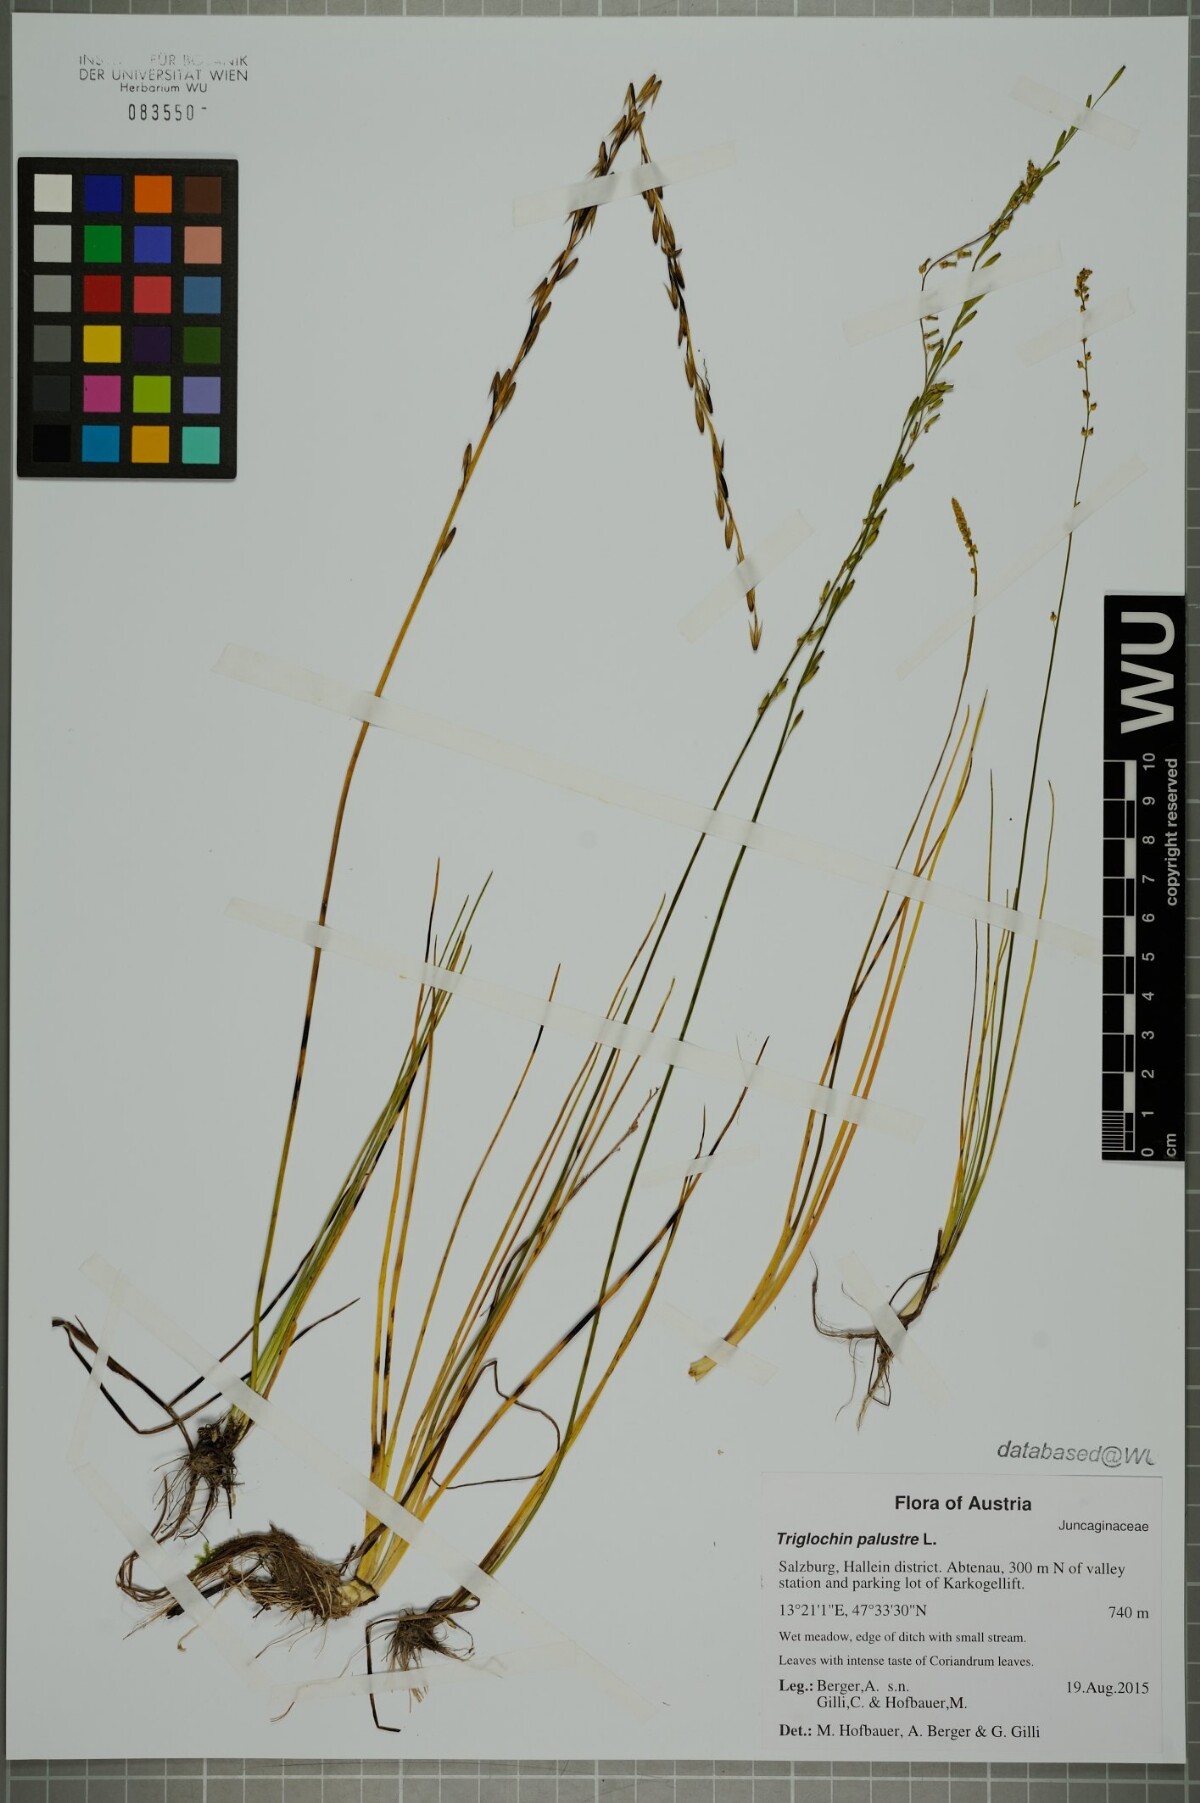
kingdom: Plantae
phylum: Tracheophyta
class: Liliopsida
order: Alismatales
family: Juncaginaceae
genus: Triglochin
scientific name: Triglochin palustris
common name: Marsh arrowgrass
